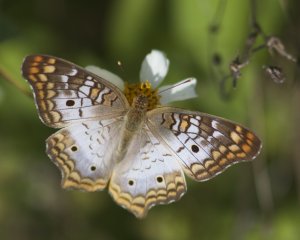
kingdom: Animalia
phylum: Arthropoda
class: Insecta
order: Lepidoptera
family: Nymphalidae
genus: Anartia
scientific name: Anartia jatrophae
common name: White Peacock
